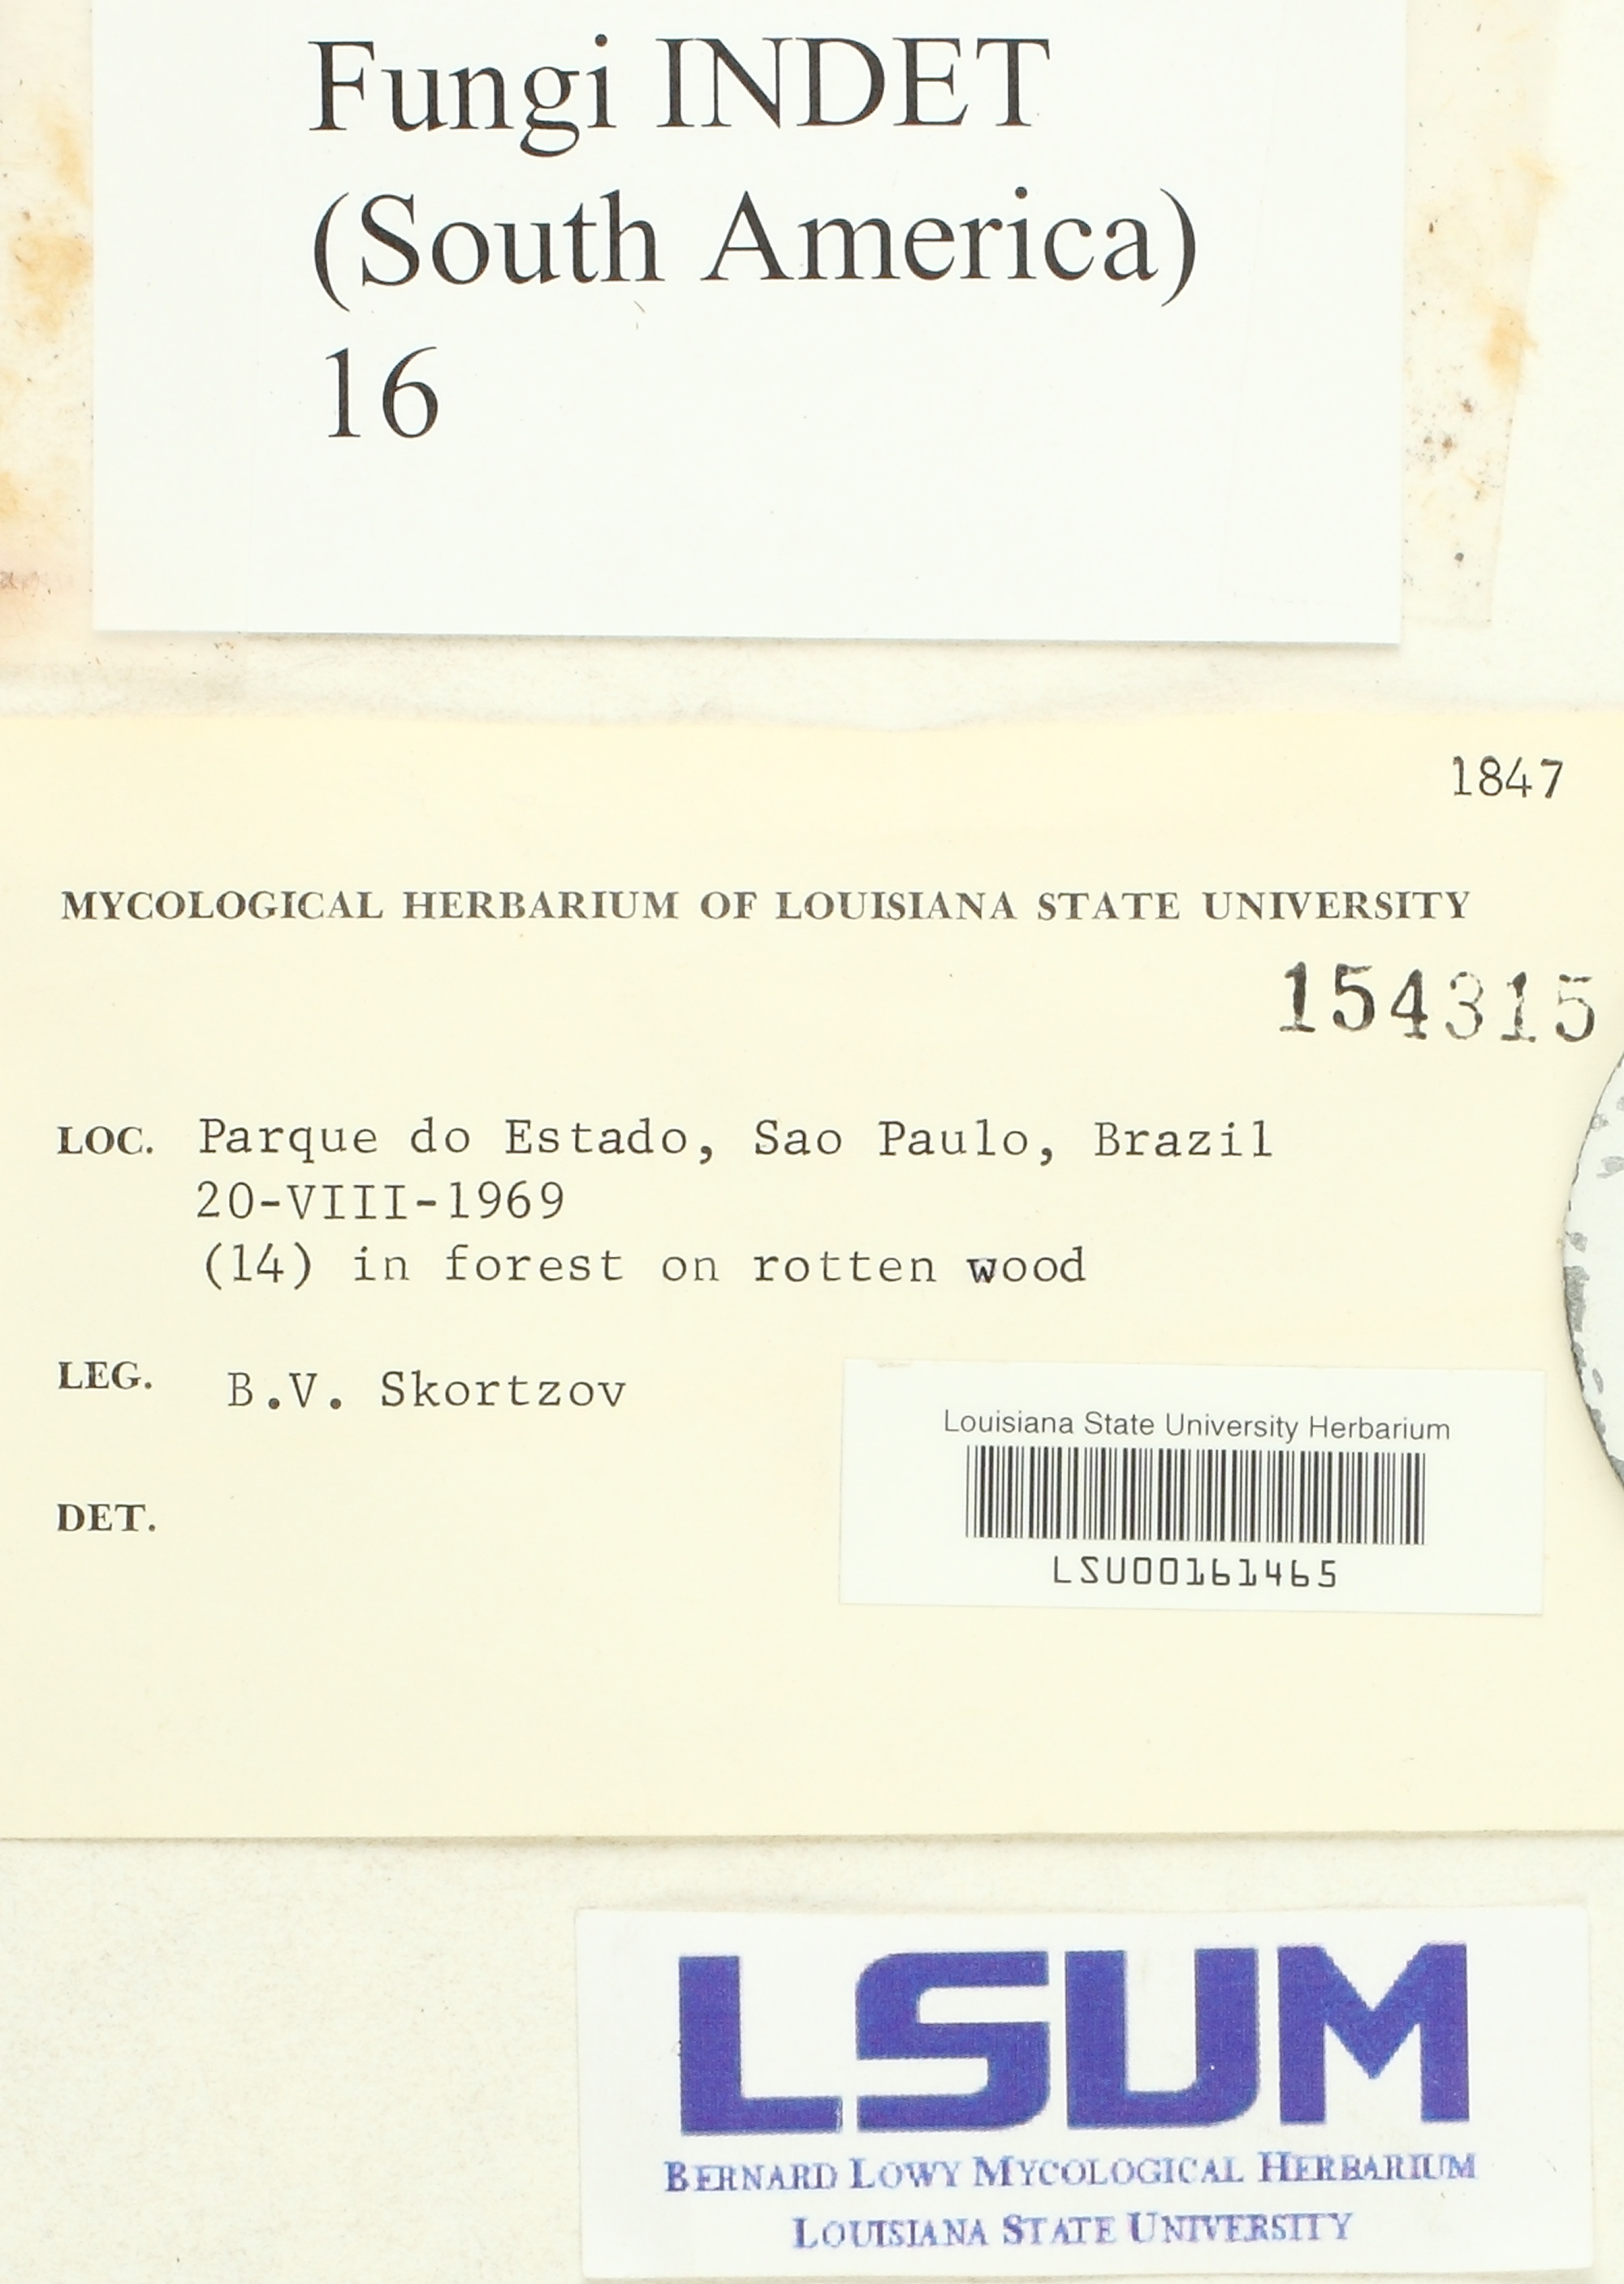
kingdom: Fungi
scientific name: Fungi
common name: Fungi
